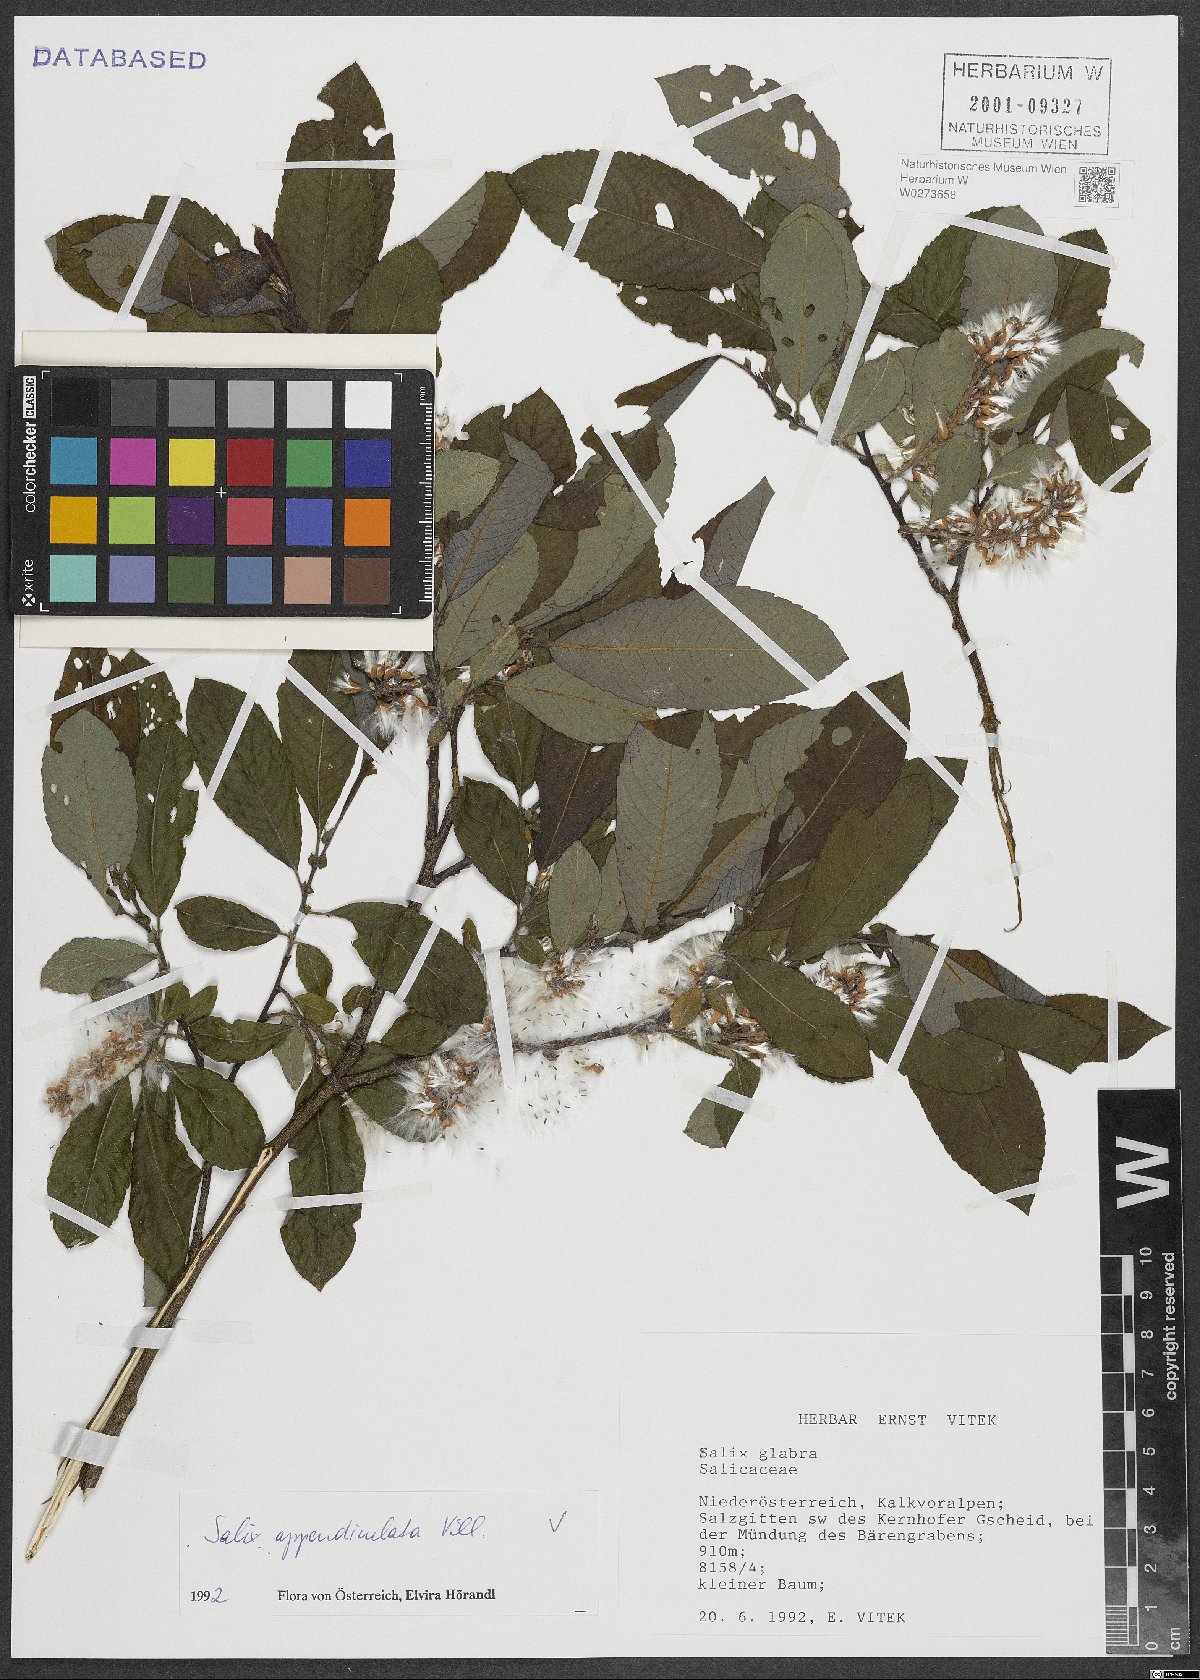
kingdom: Plantae
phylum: Tracheophyta
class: Magnoliopsida
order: Malpighiales
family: Salicaceae
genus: Salix
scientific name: Salix appendiculata
